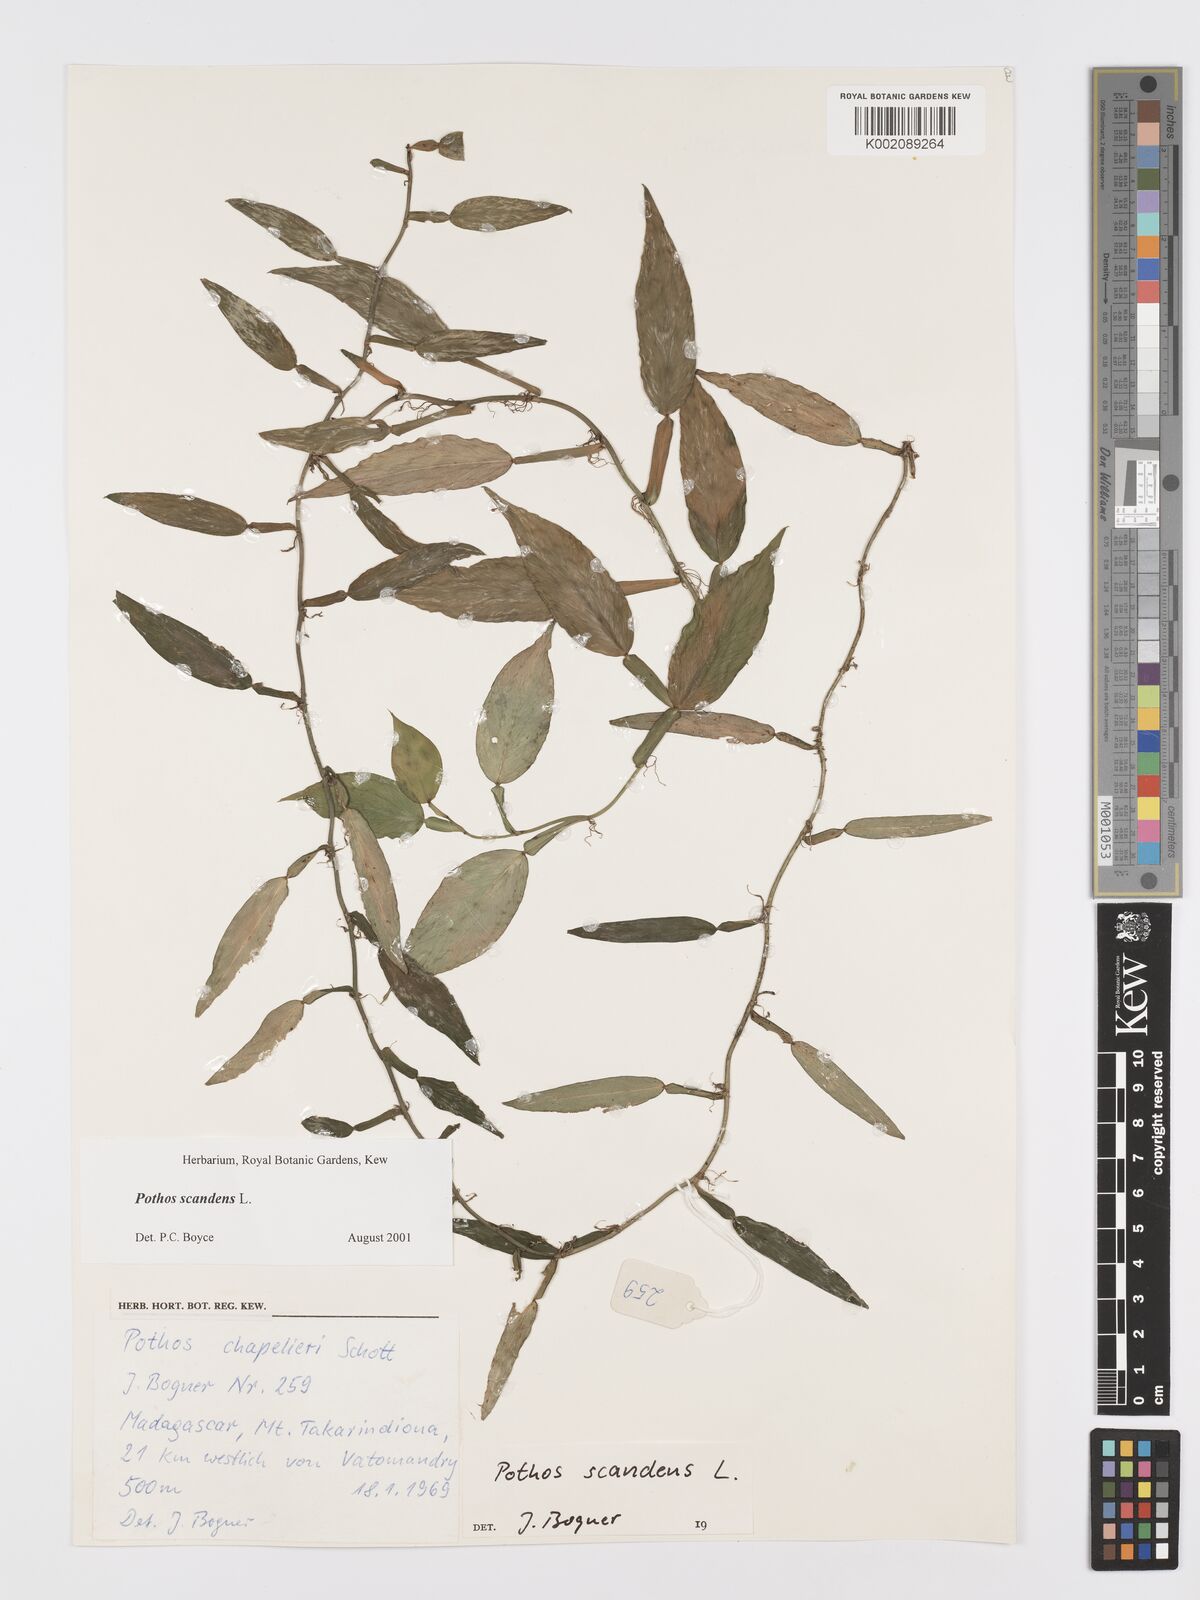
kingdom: Plantae
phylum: Tracheophyta
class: Liliopsida
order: Alismatales
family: Araceae
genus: Pothos
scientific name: Pothos scandens
